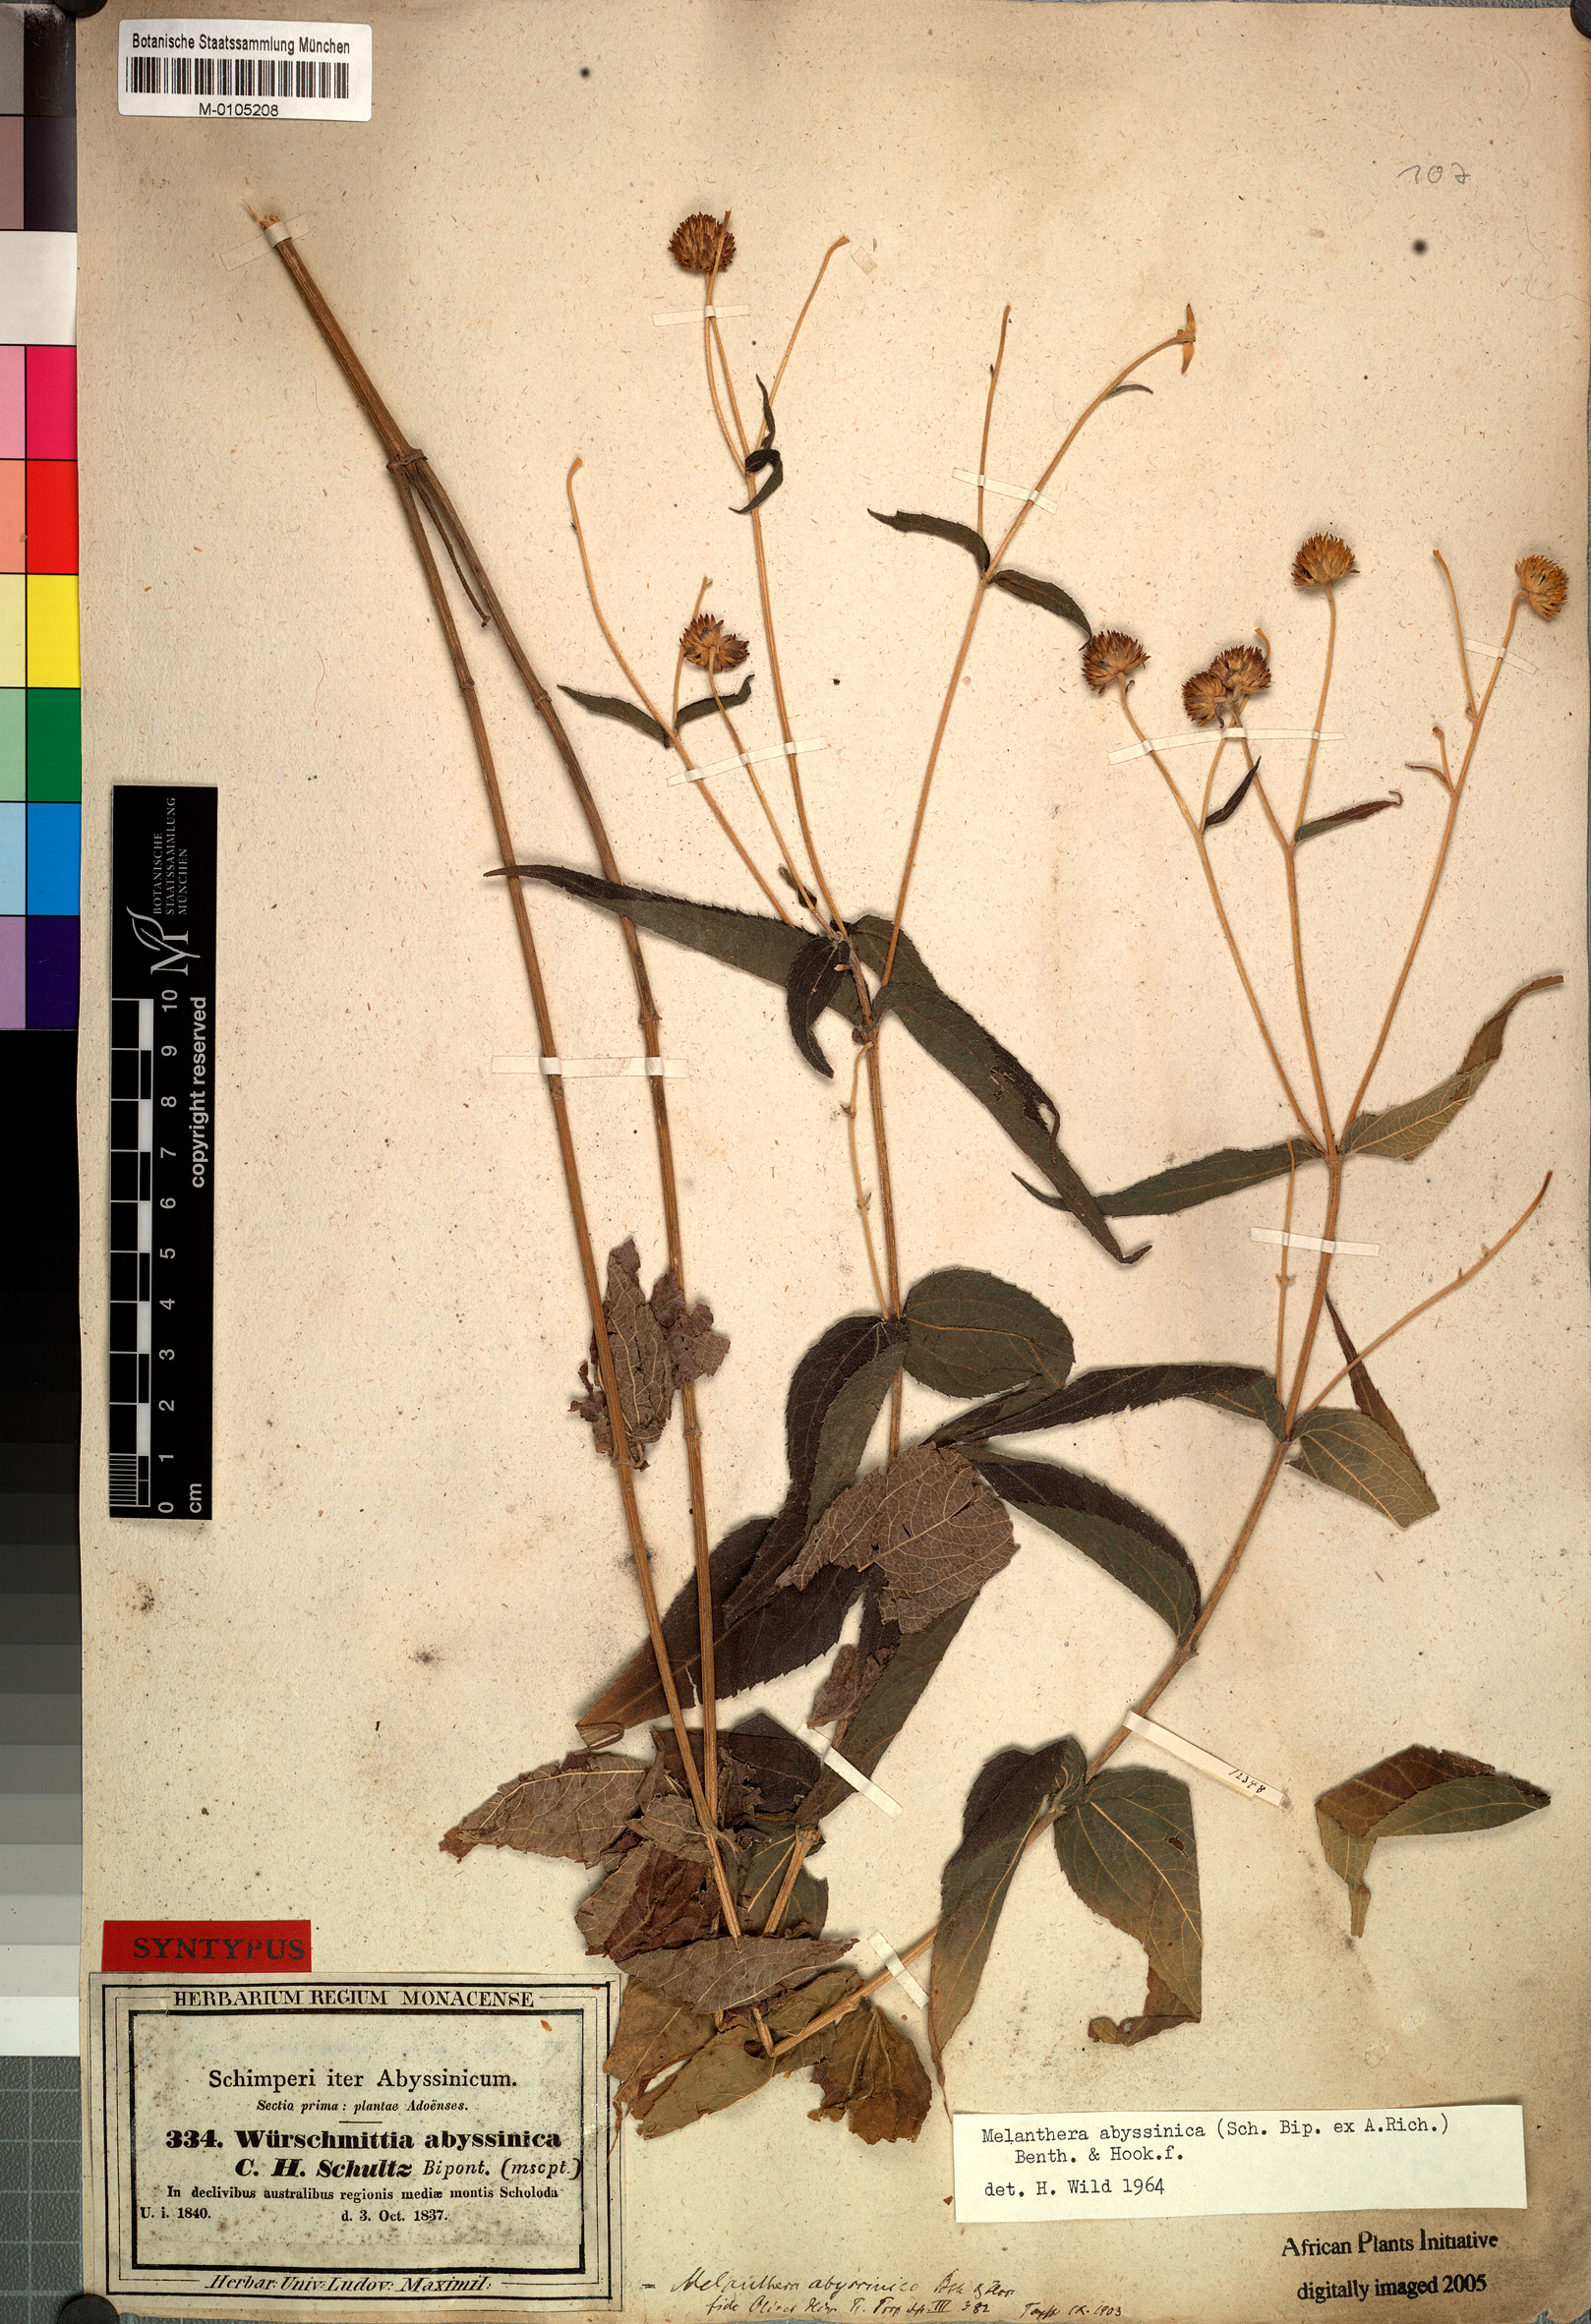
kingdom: Plantae
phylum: Tracheophyta
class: Magnoliopsida
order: Asterales
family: Asteraceae
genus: Lipotriche
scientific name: Lipotriche abyssinica
